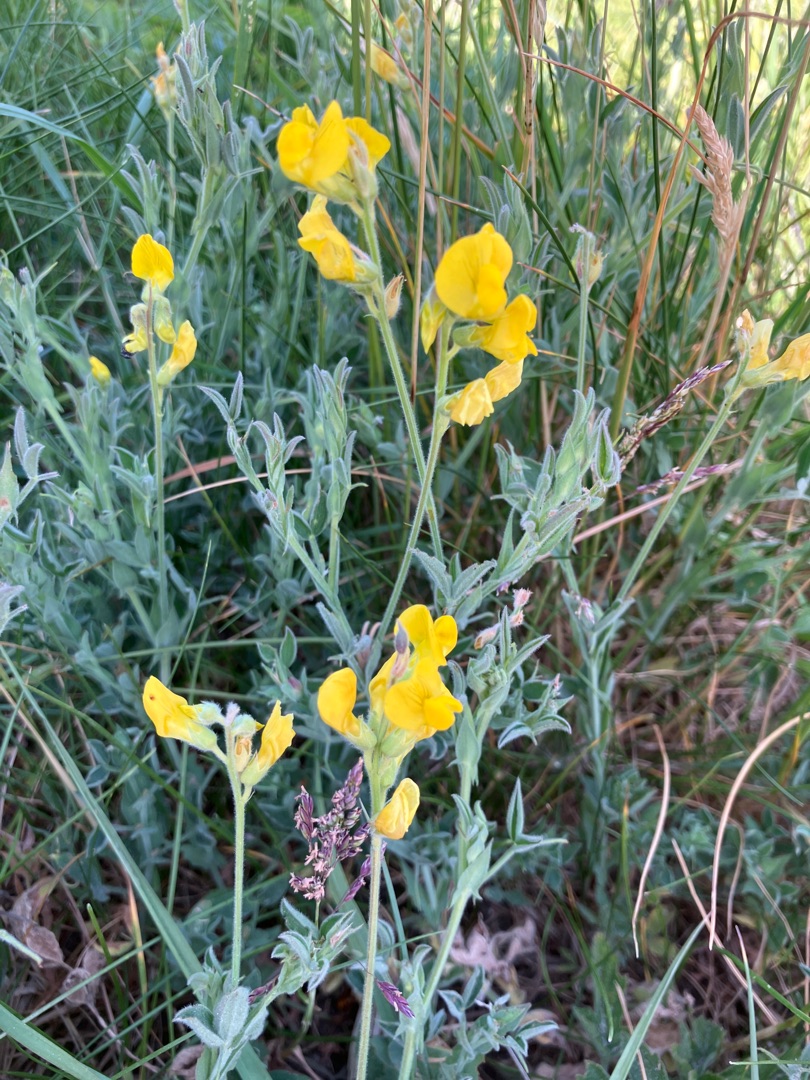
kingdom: Plantae
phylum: Tracheophyta
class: Magnoliopsida
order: Fabales
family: Fabaceae
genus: Lathyrus
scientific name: Lathyrus pratensis
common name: Gul fladbælg
